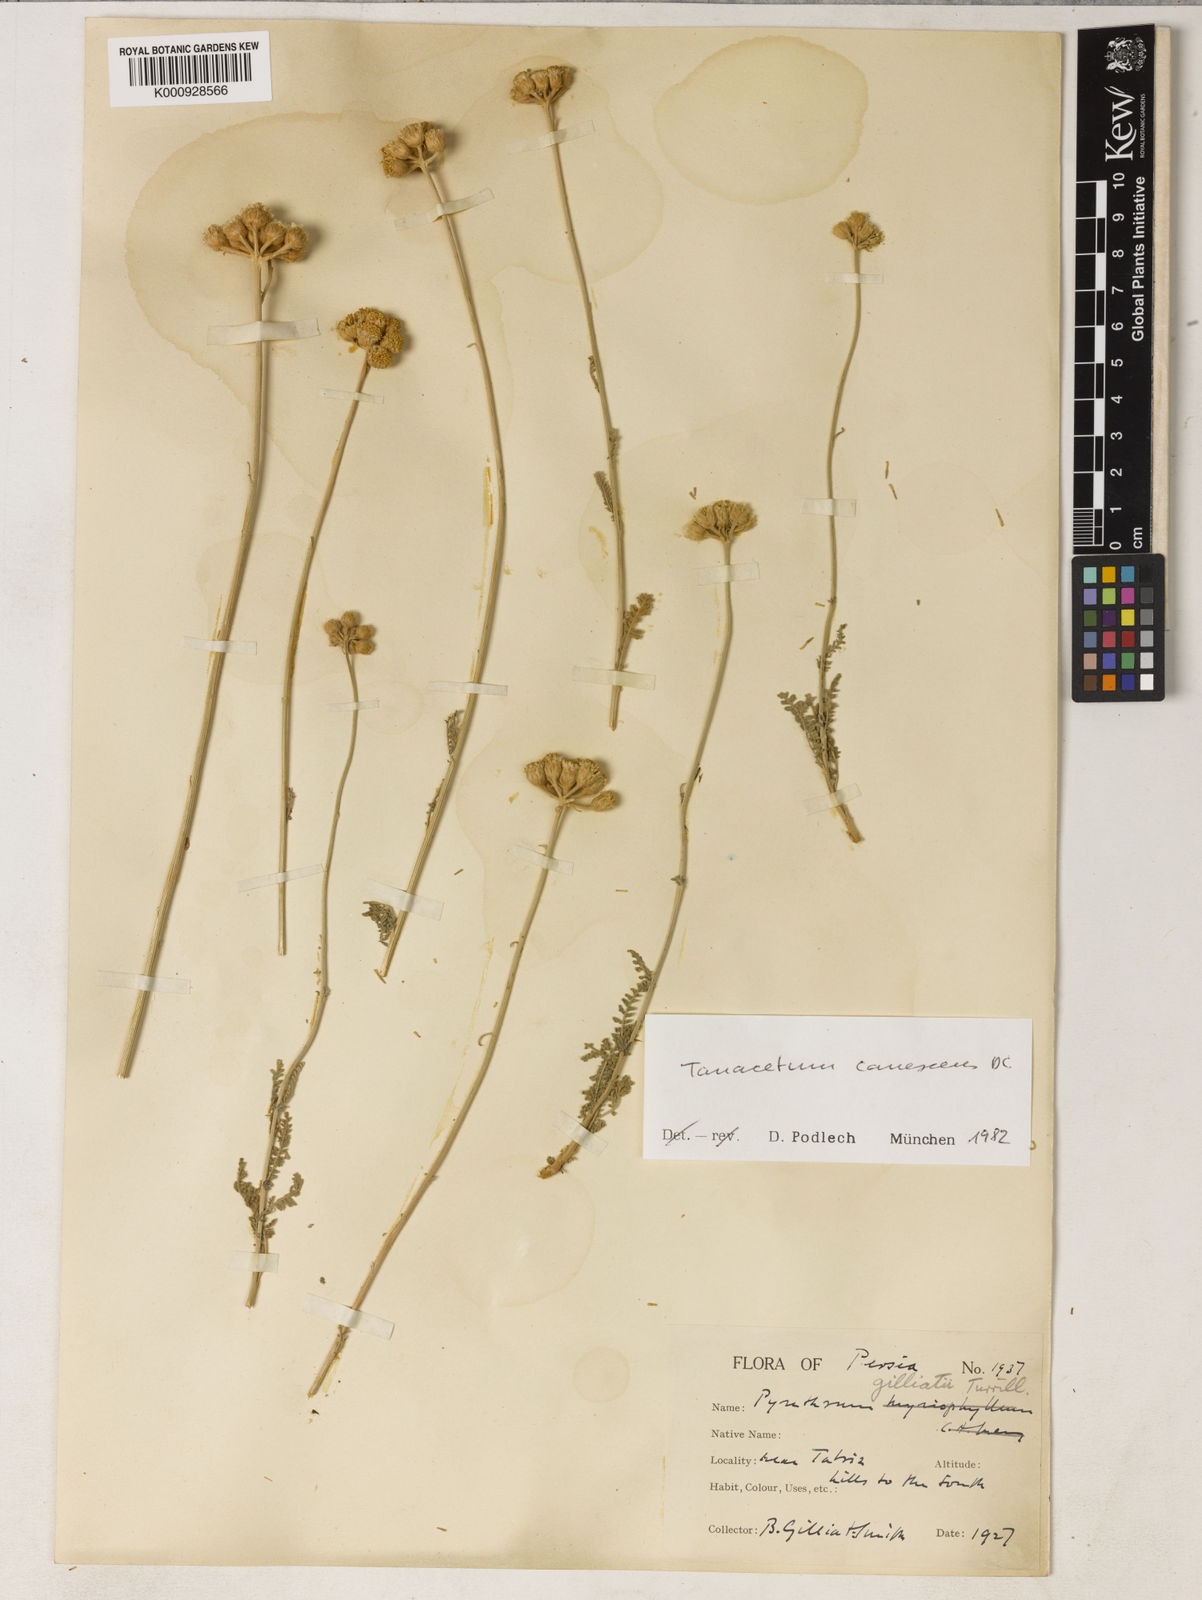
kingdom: Plantae
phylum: Tracheophyta
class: Magnoliopsida
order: Asterales
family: Asteraceae
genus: Tanacetum
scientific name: Tanacetum canescens
